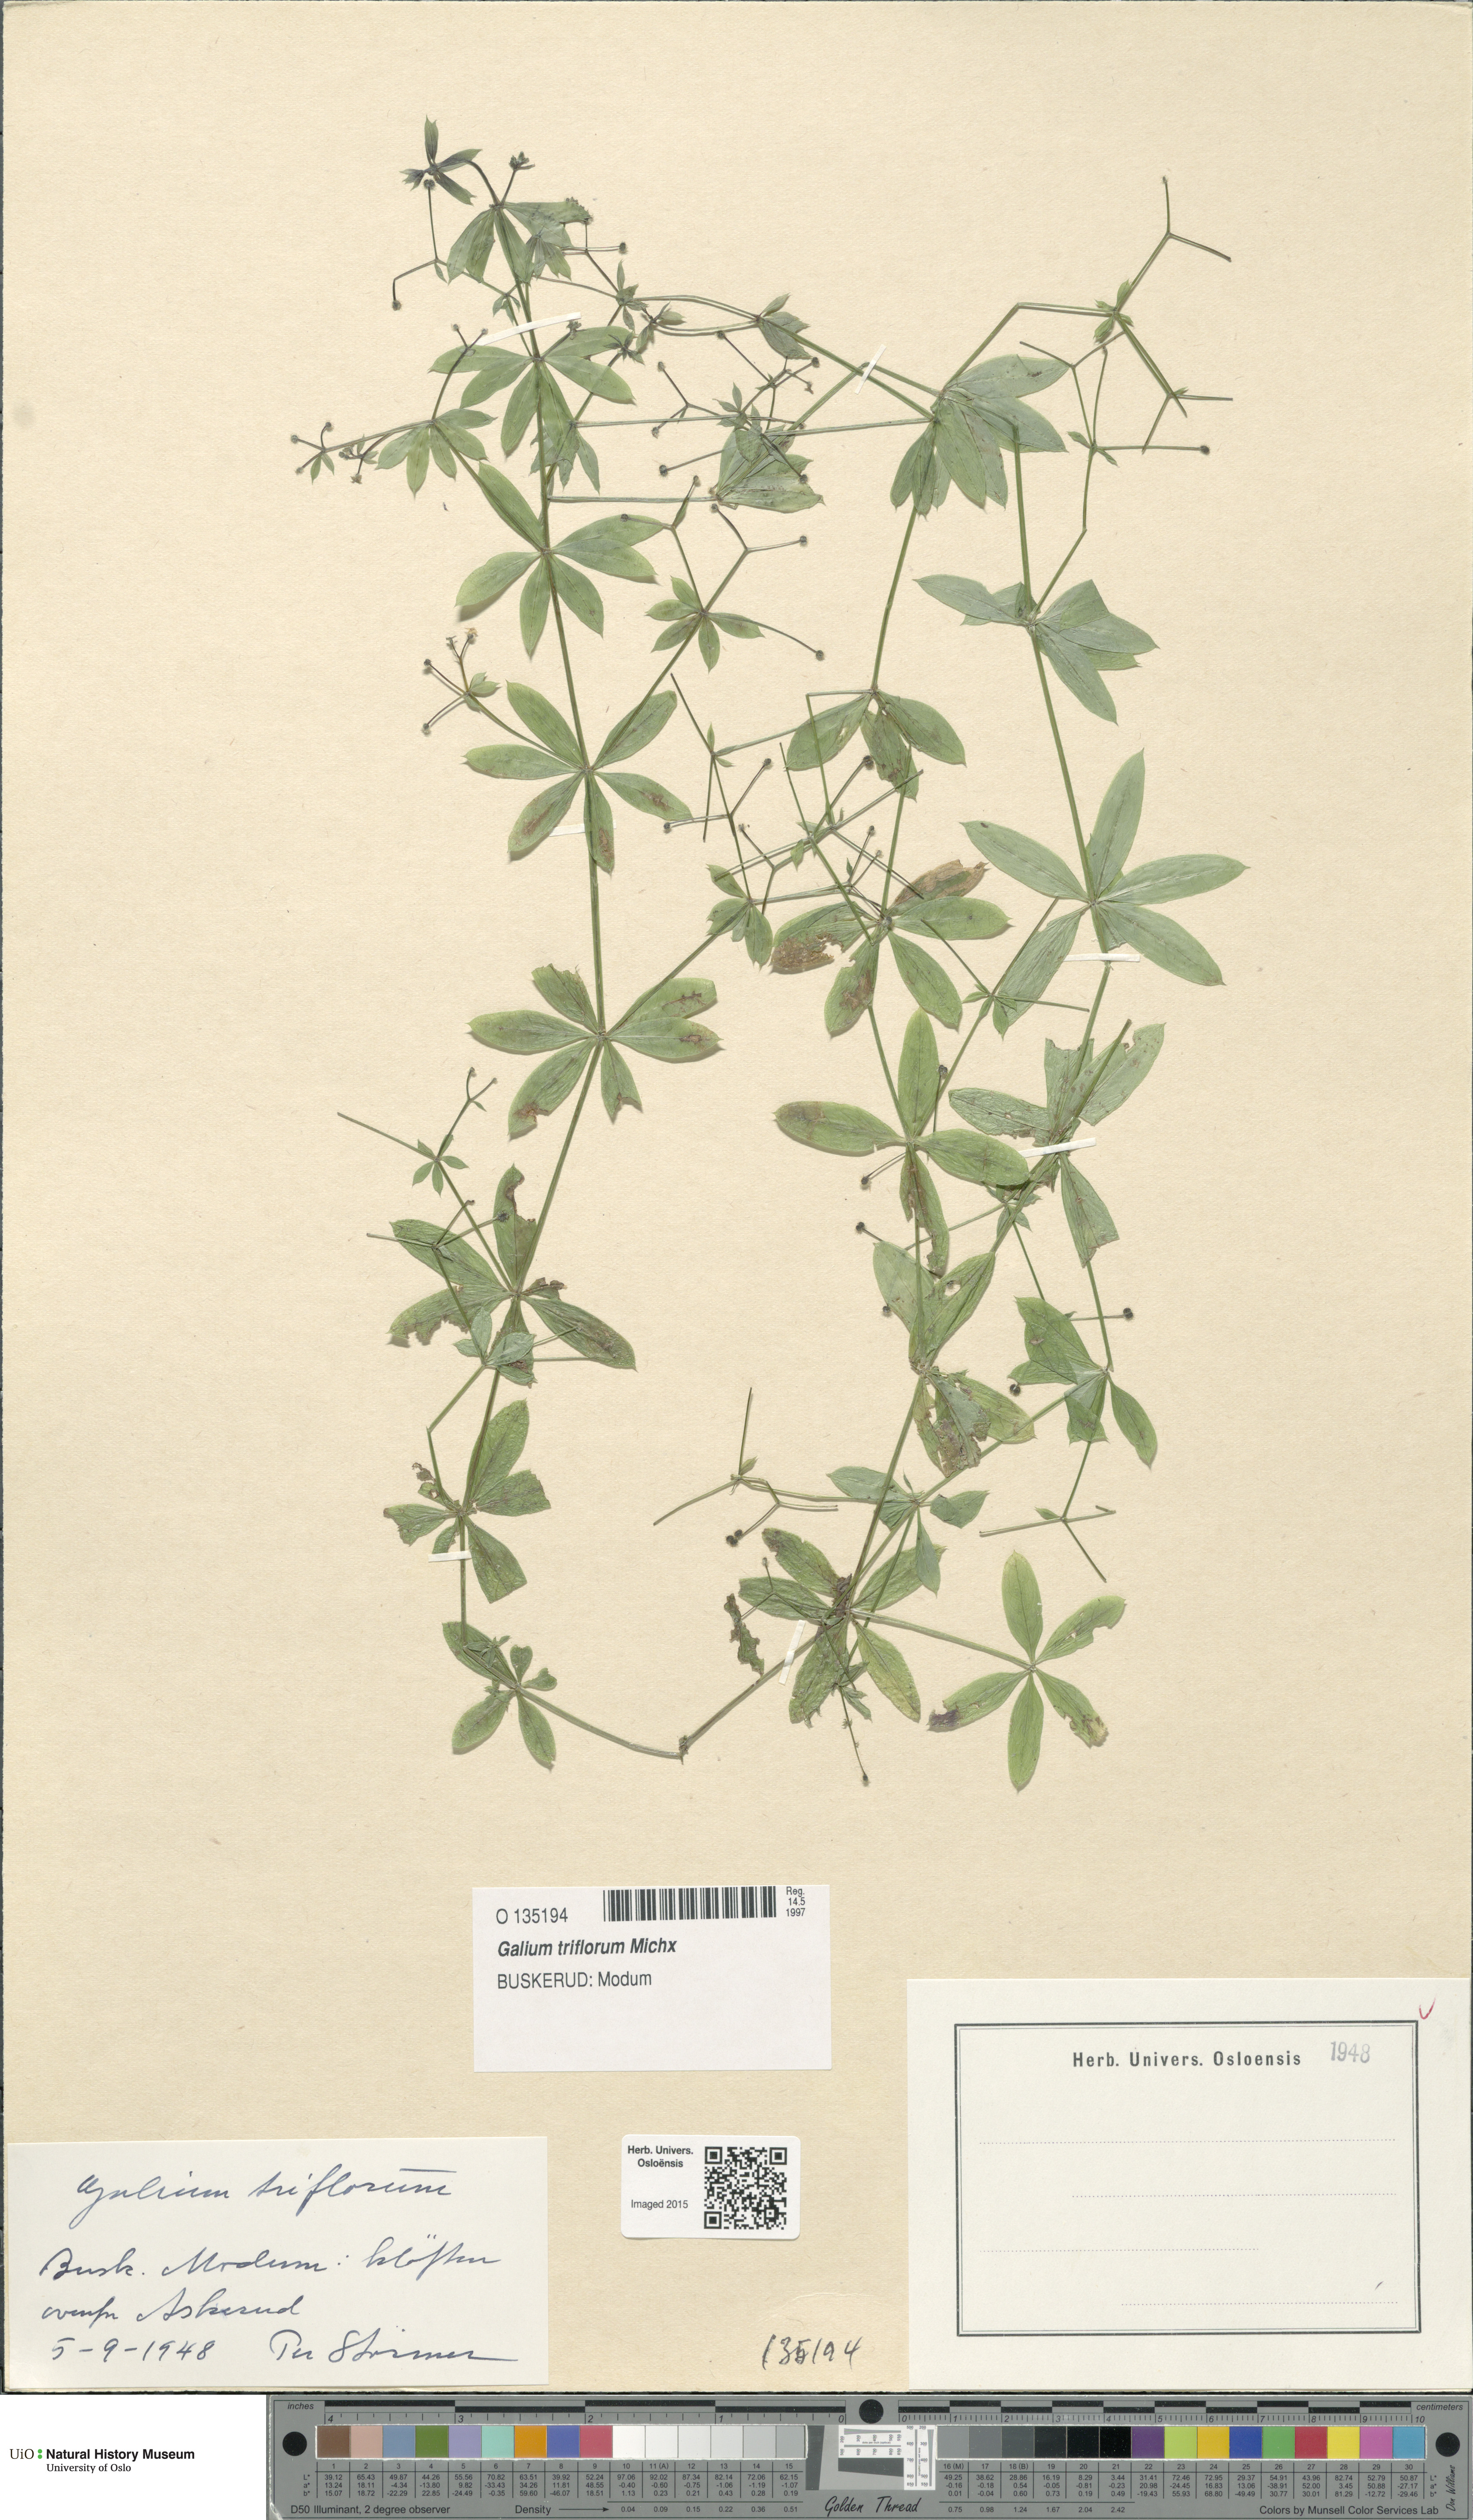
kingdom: Plantae
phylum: Tracheophyta
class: Magnoliopsida
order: Gentianales
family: Rubiaceae
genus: Galium
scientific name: Galium triflorum
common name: Fragrant bedstraw
